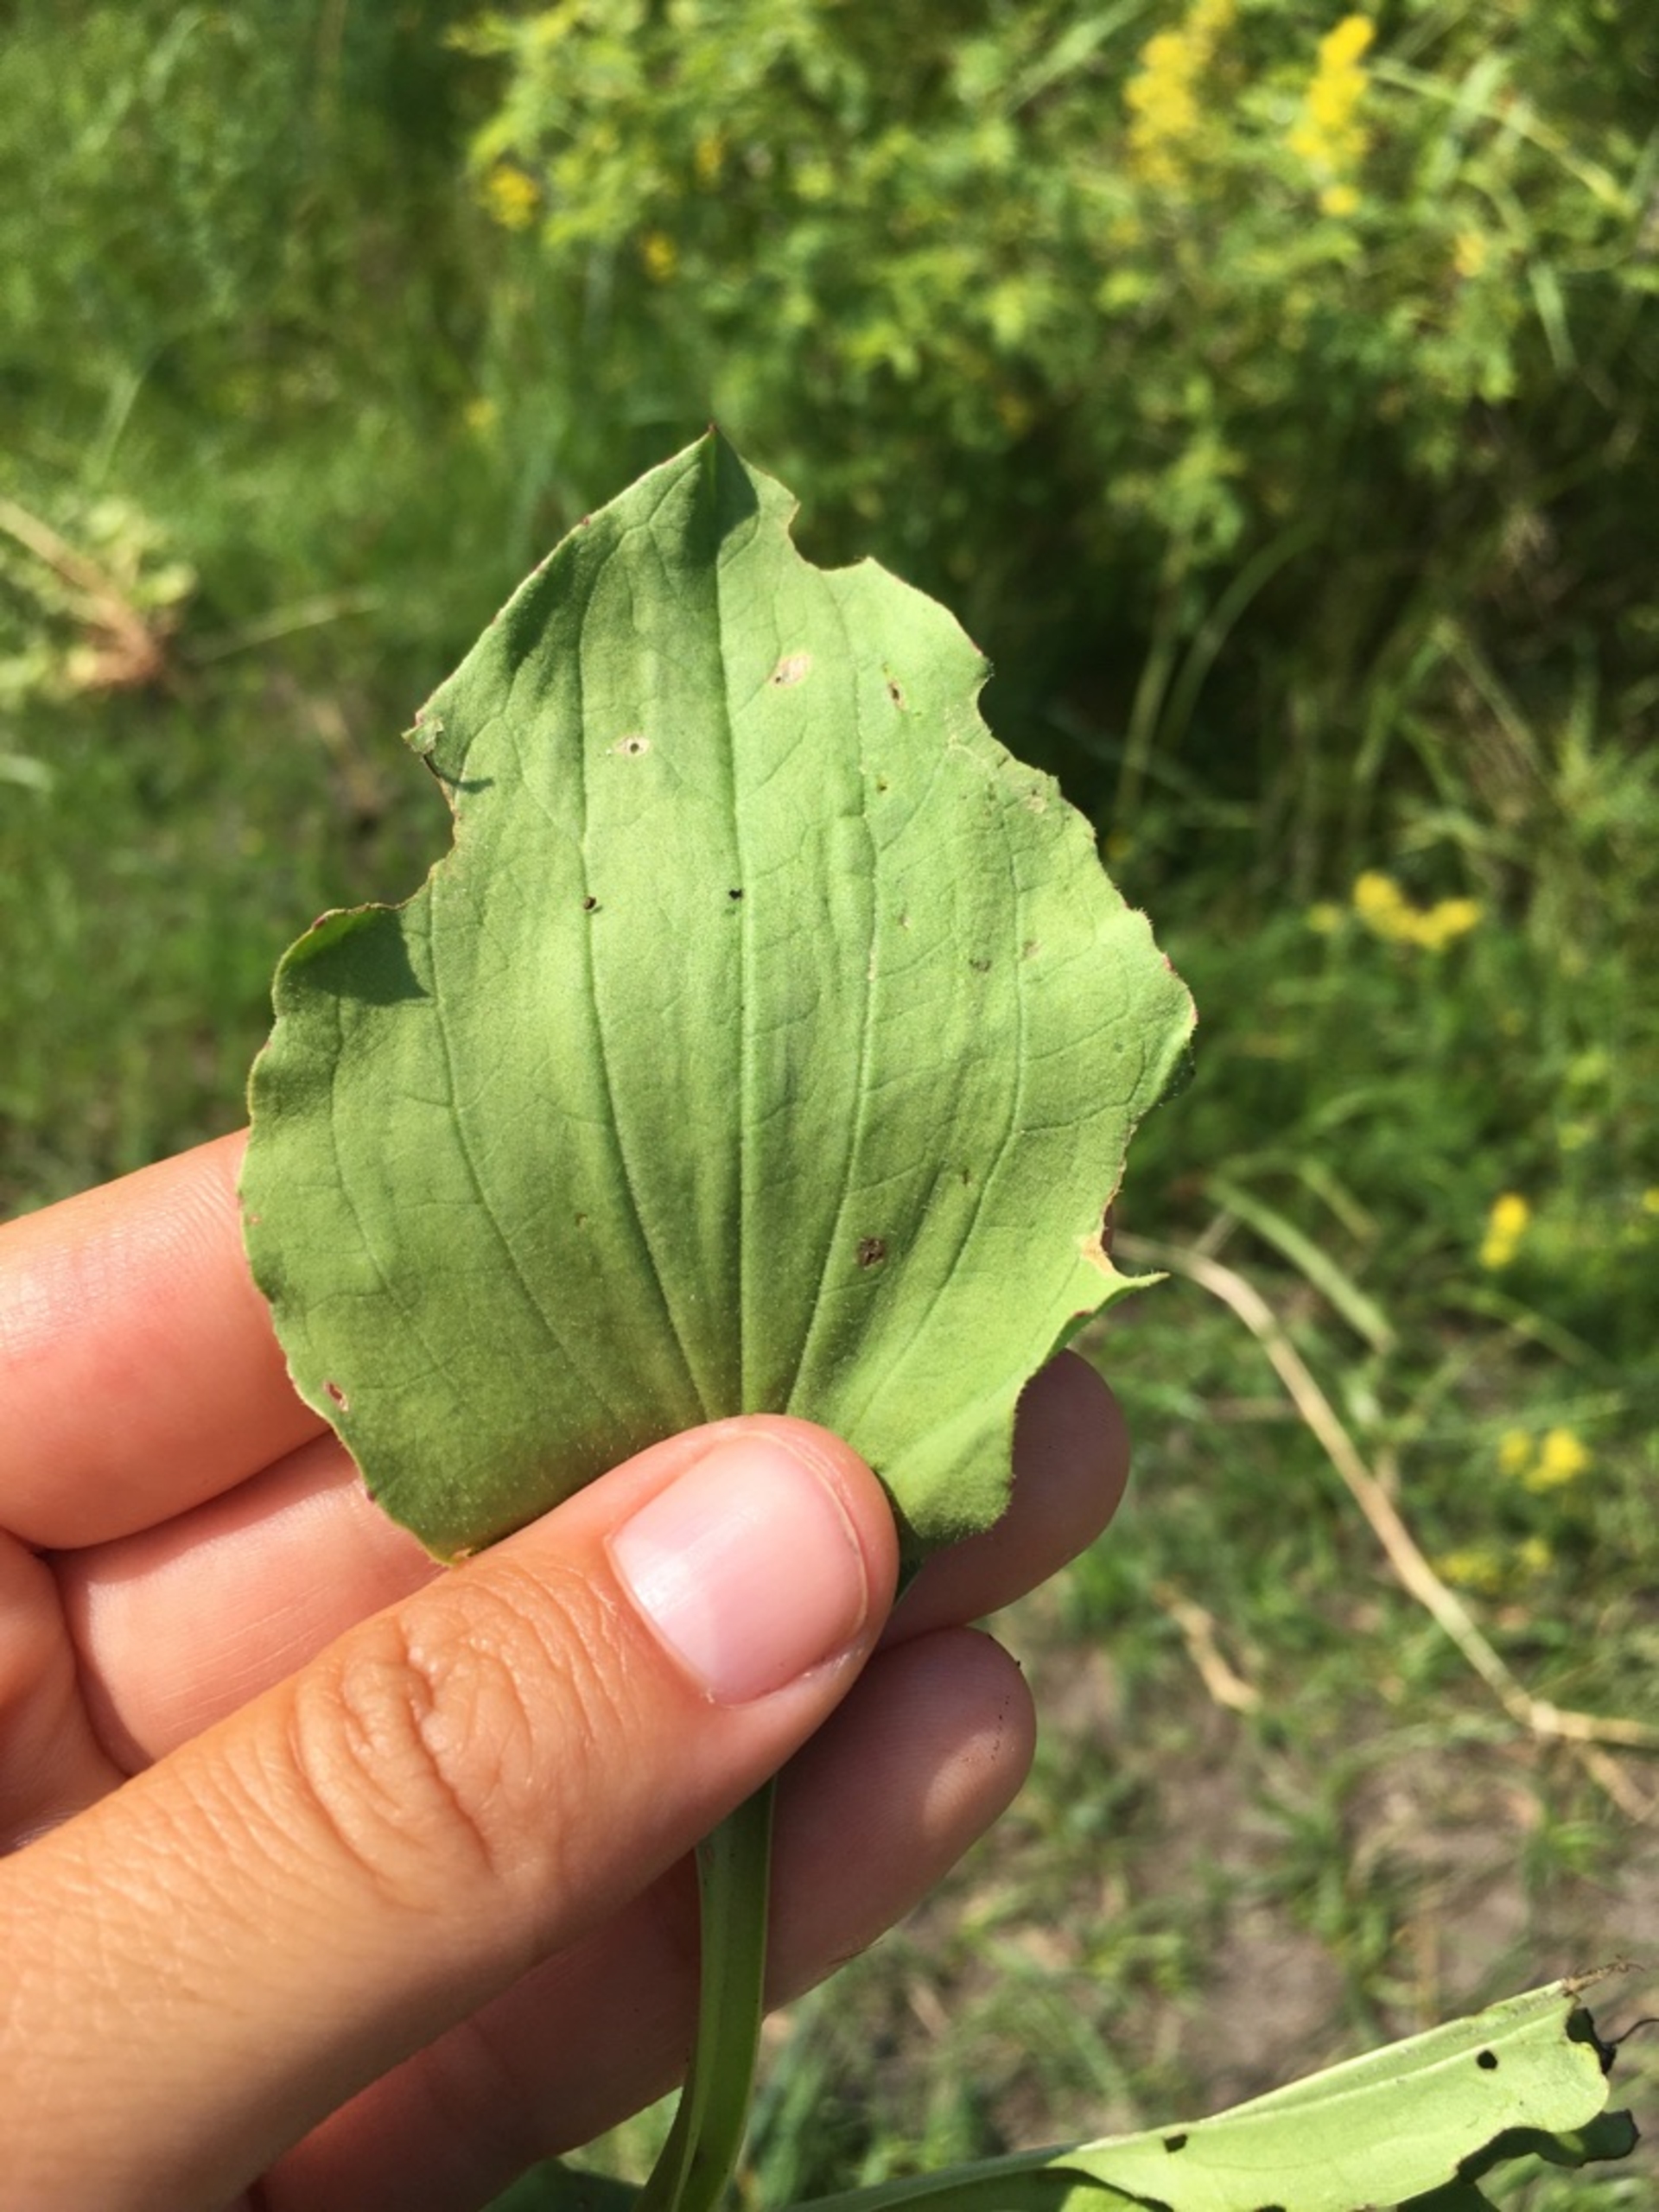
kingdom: Plantae
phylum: Tracheophyta
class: Magnoliopsida
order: Lamiales
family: Plantaginaceae
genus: Plantago
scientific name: Plantago major
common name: Glat vejbred
